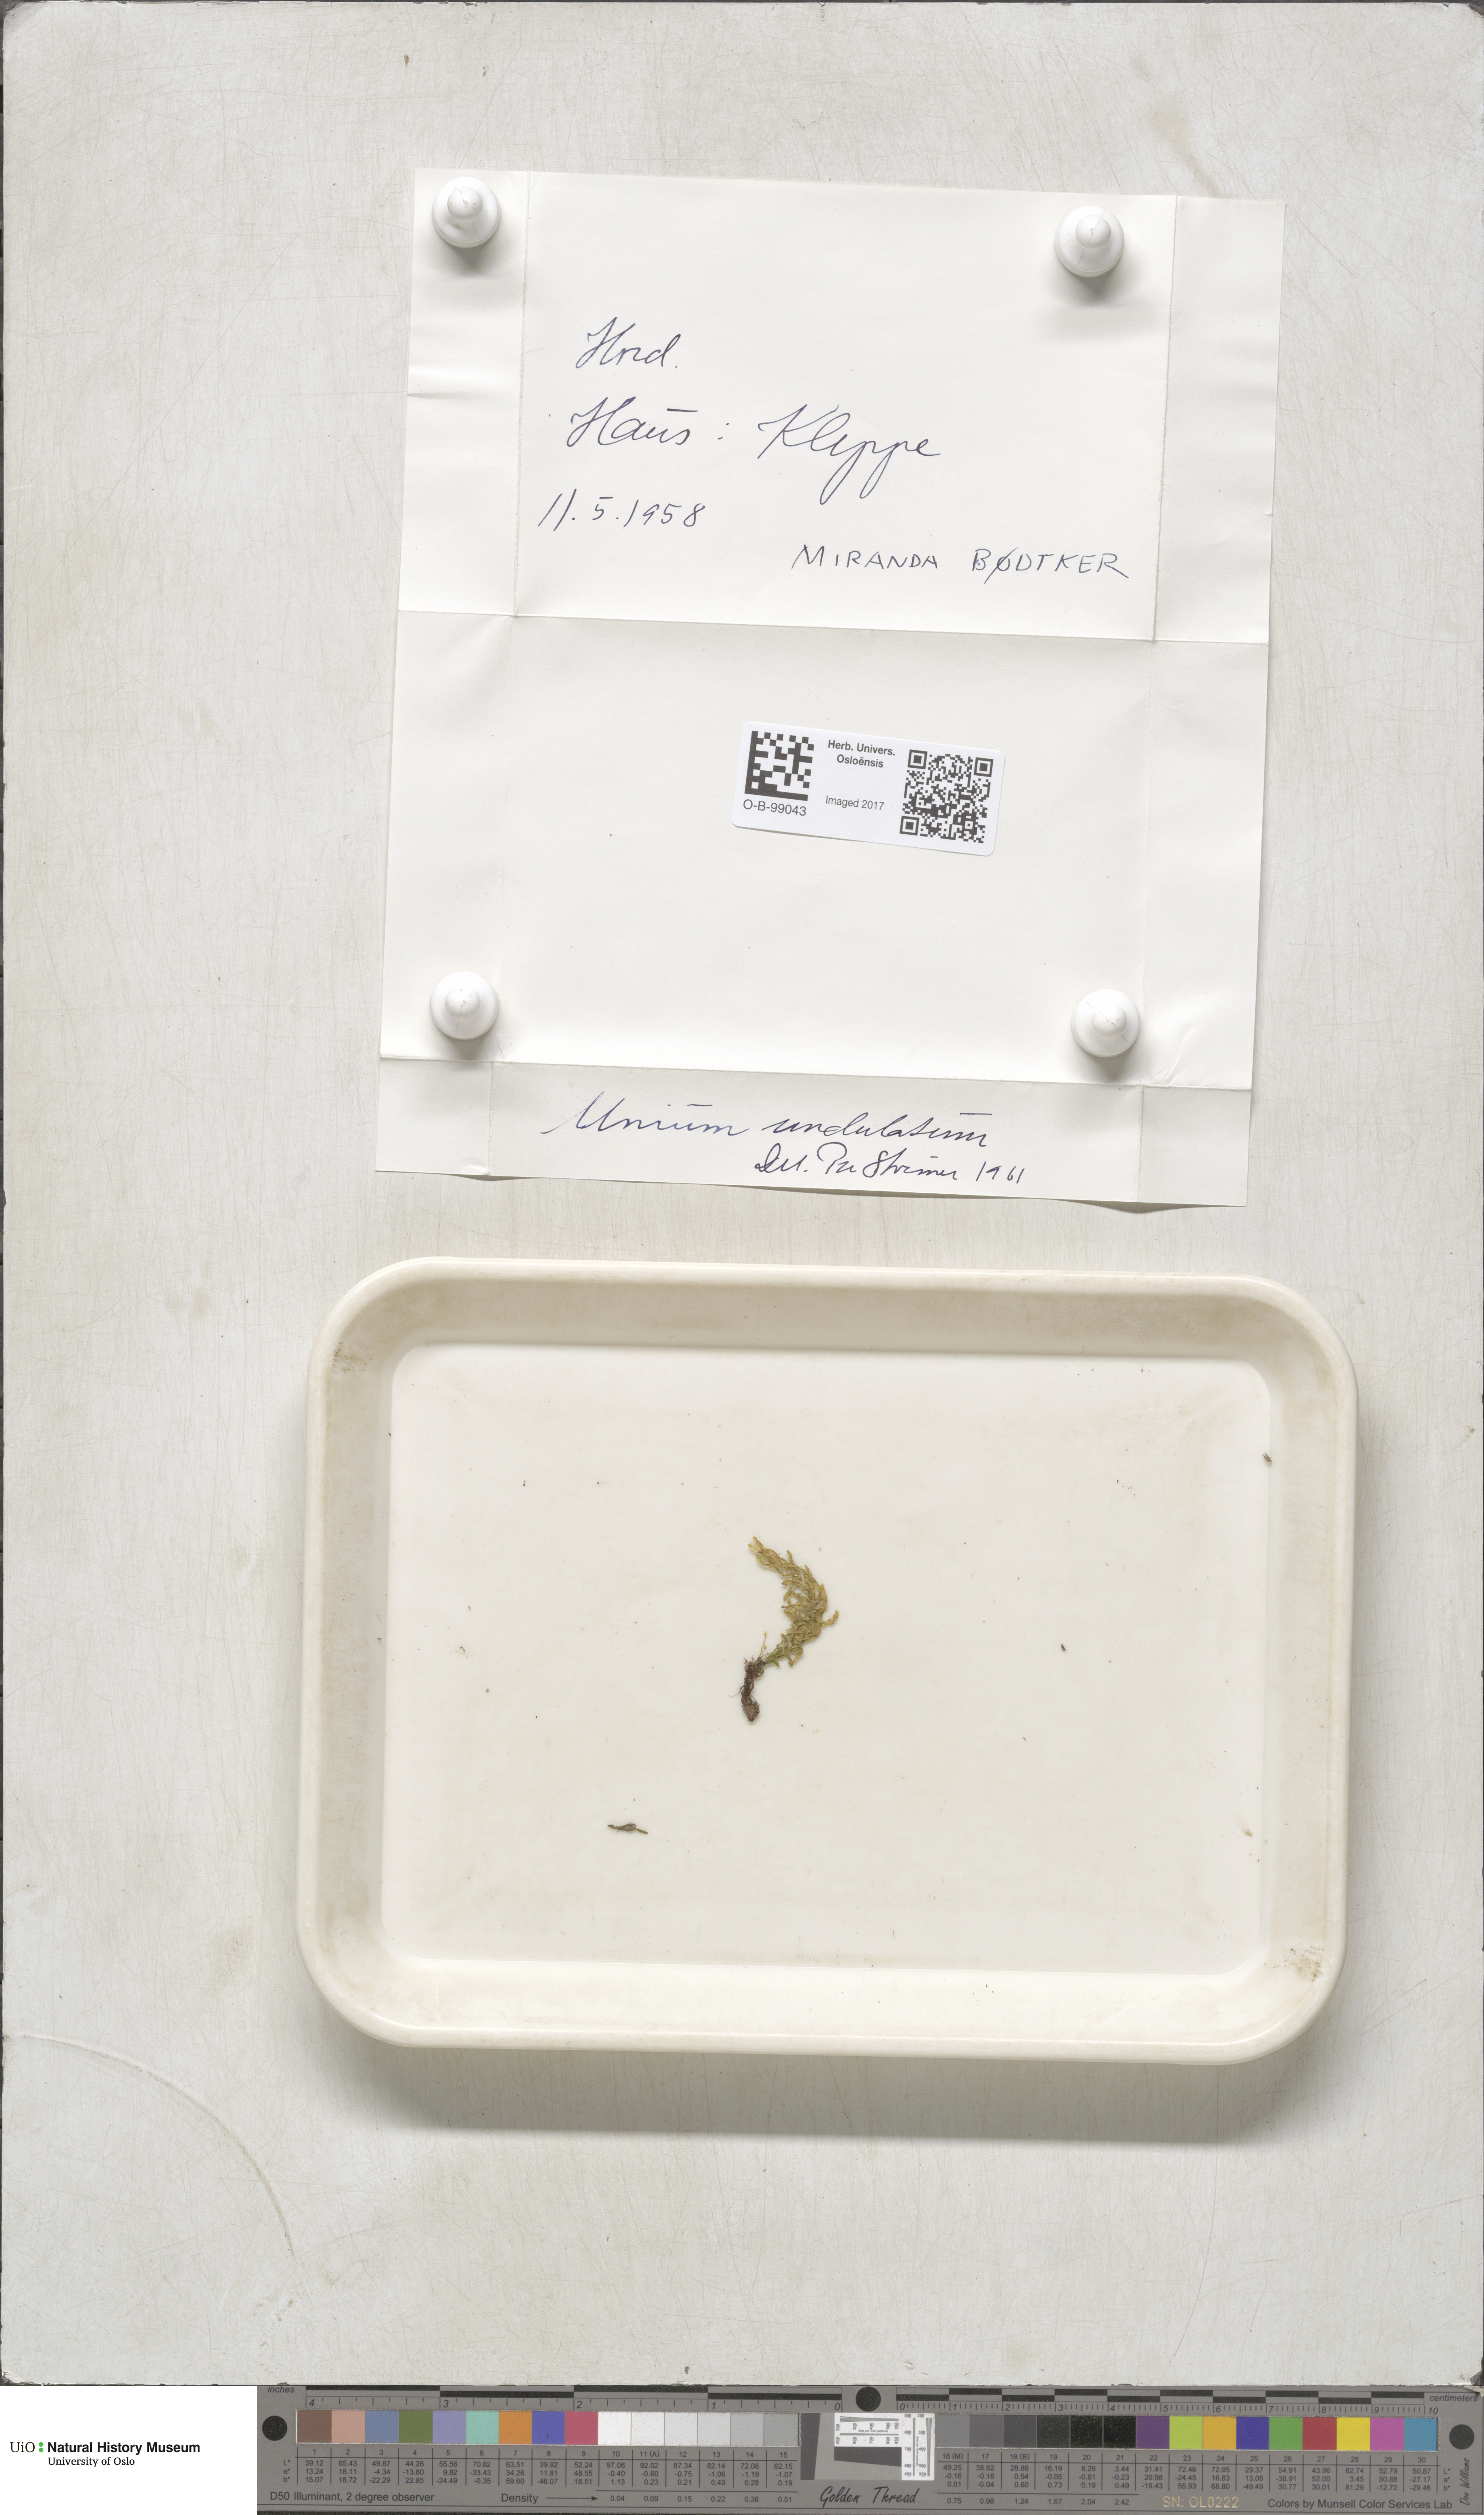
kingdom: Plantae
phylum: Bryophyta
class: Bryopsida
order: Bryales
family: Mniaceae
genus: Plagiomnium
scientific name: Plagiomnium undulatum
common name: Hart's-tongue thyme-moss
